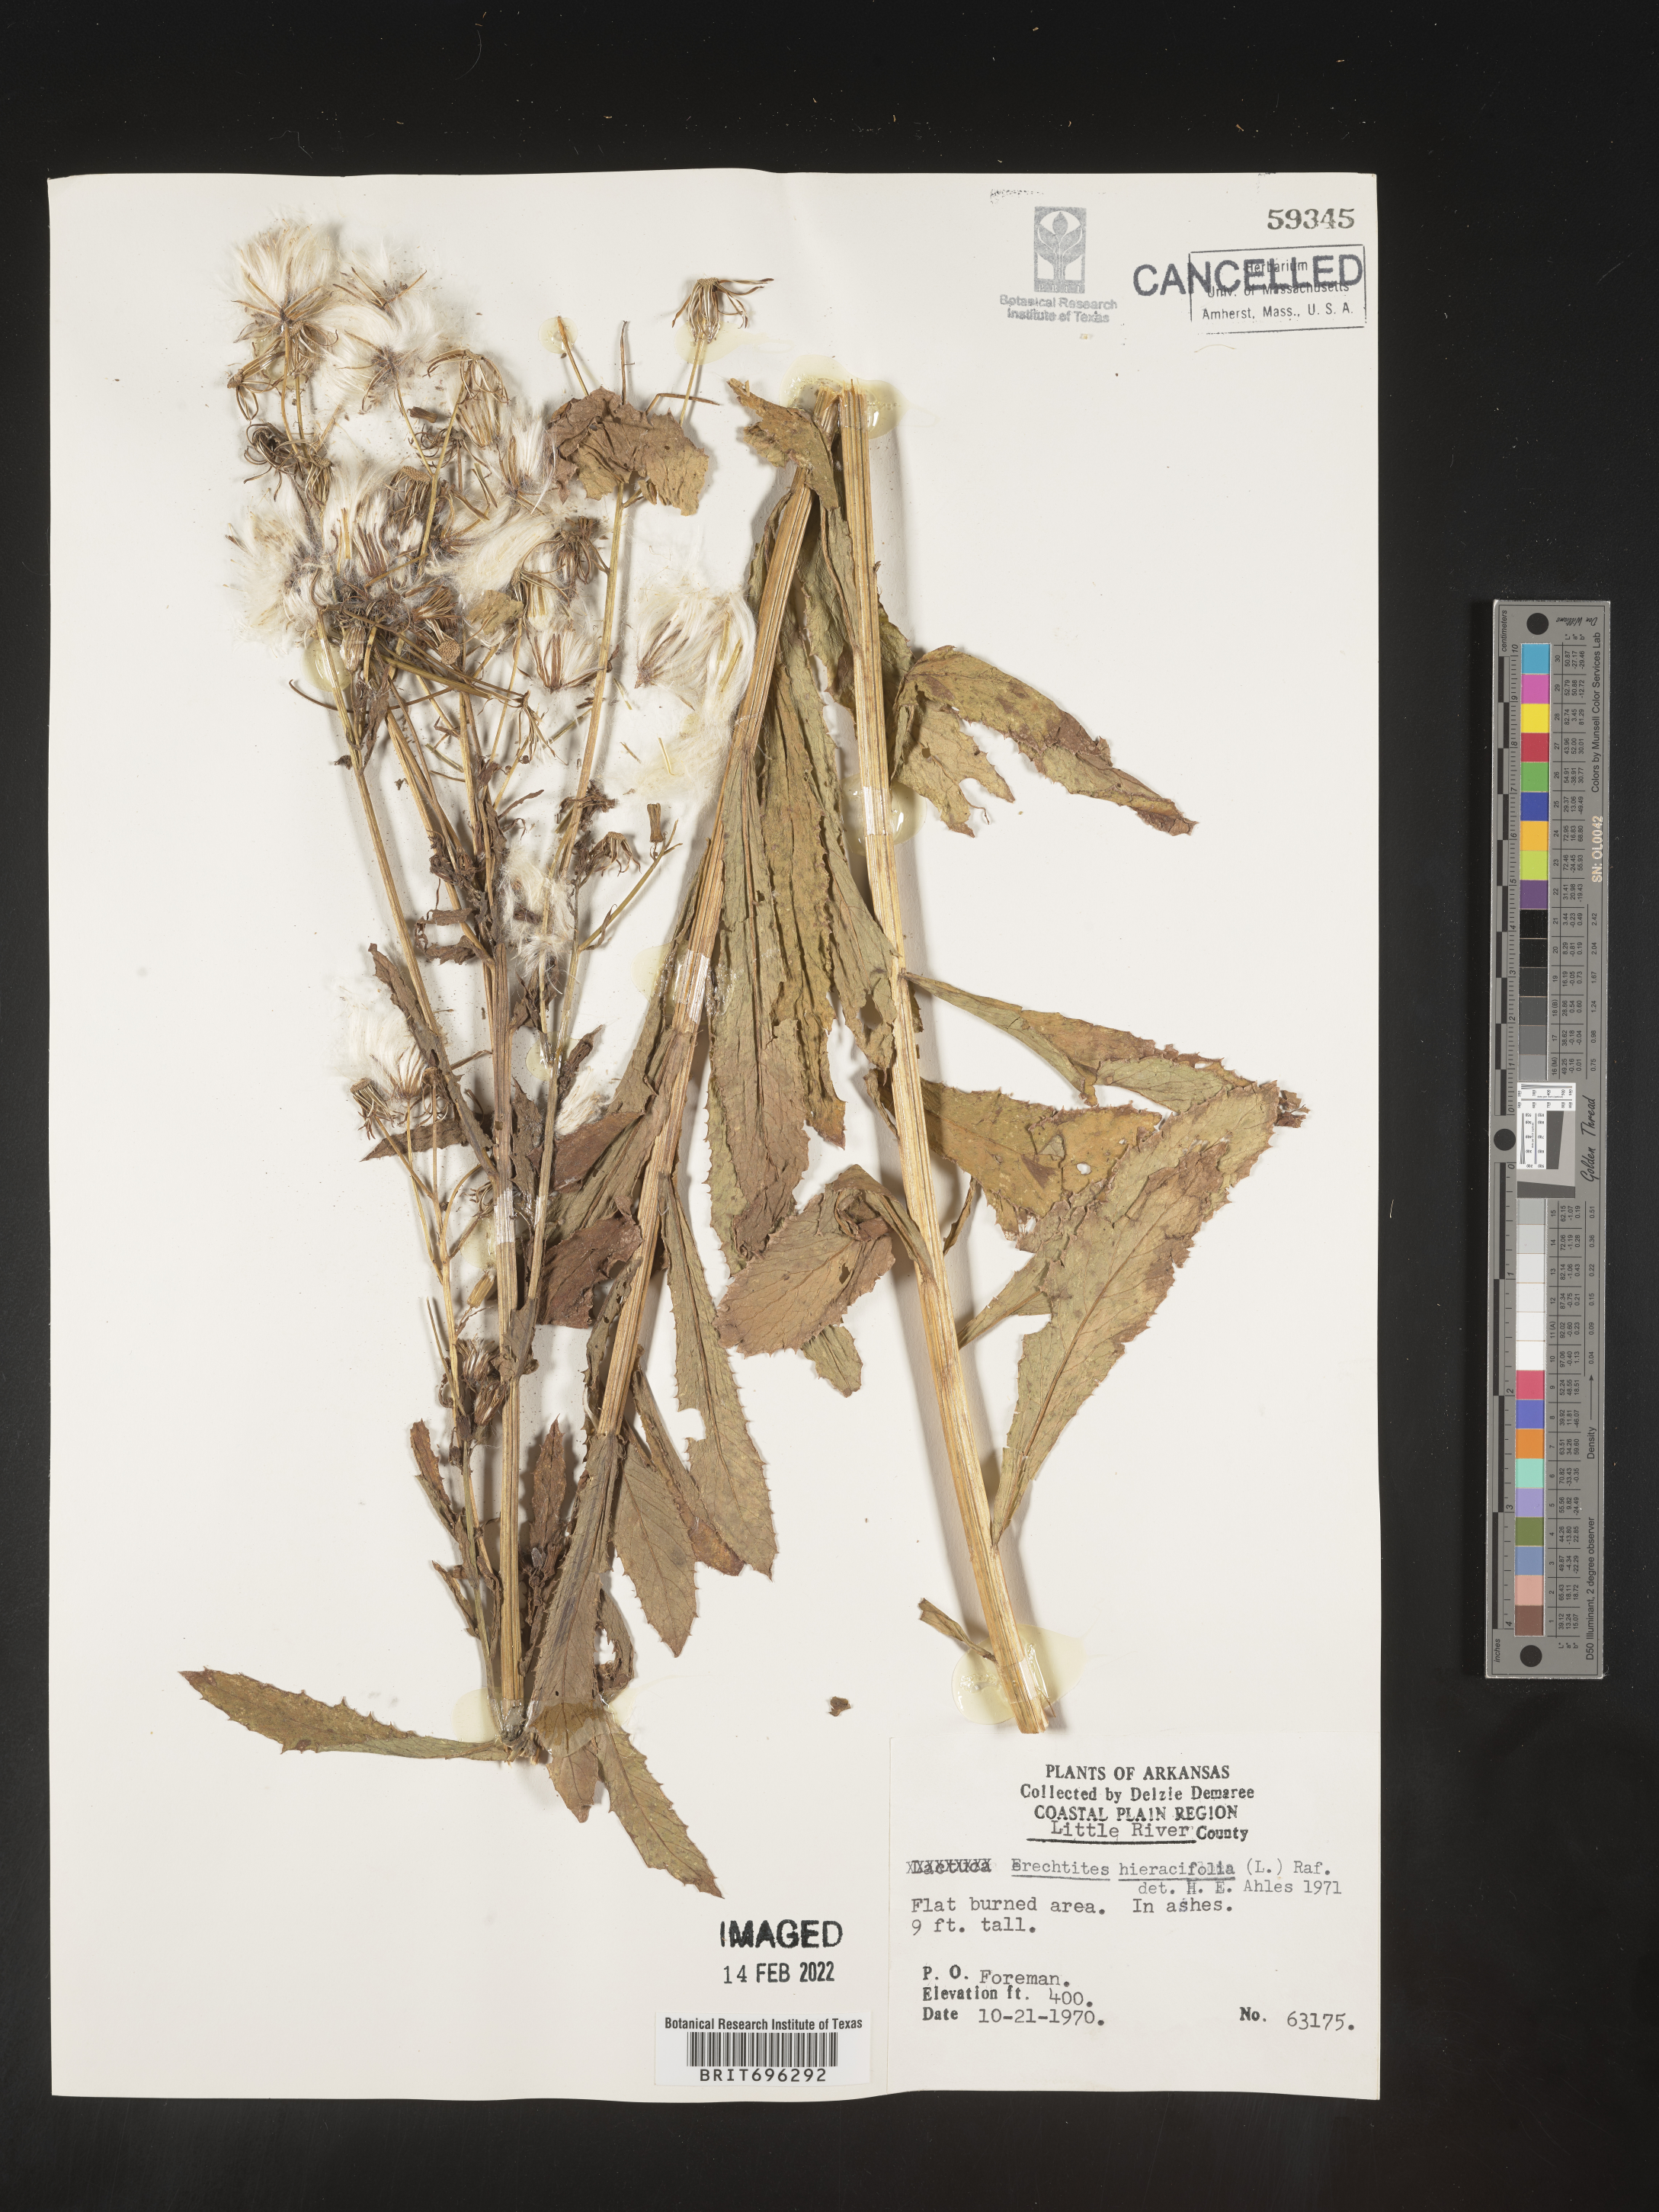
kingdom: Plantae
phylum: Tracheophyta
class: Magnoliopsida
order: Asterales
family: Asteraceae
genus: Erechtites
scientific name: Erechtites hieraciifolius
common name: American burnweed
